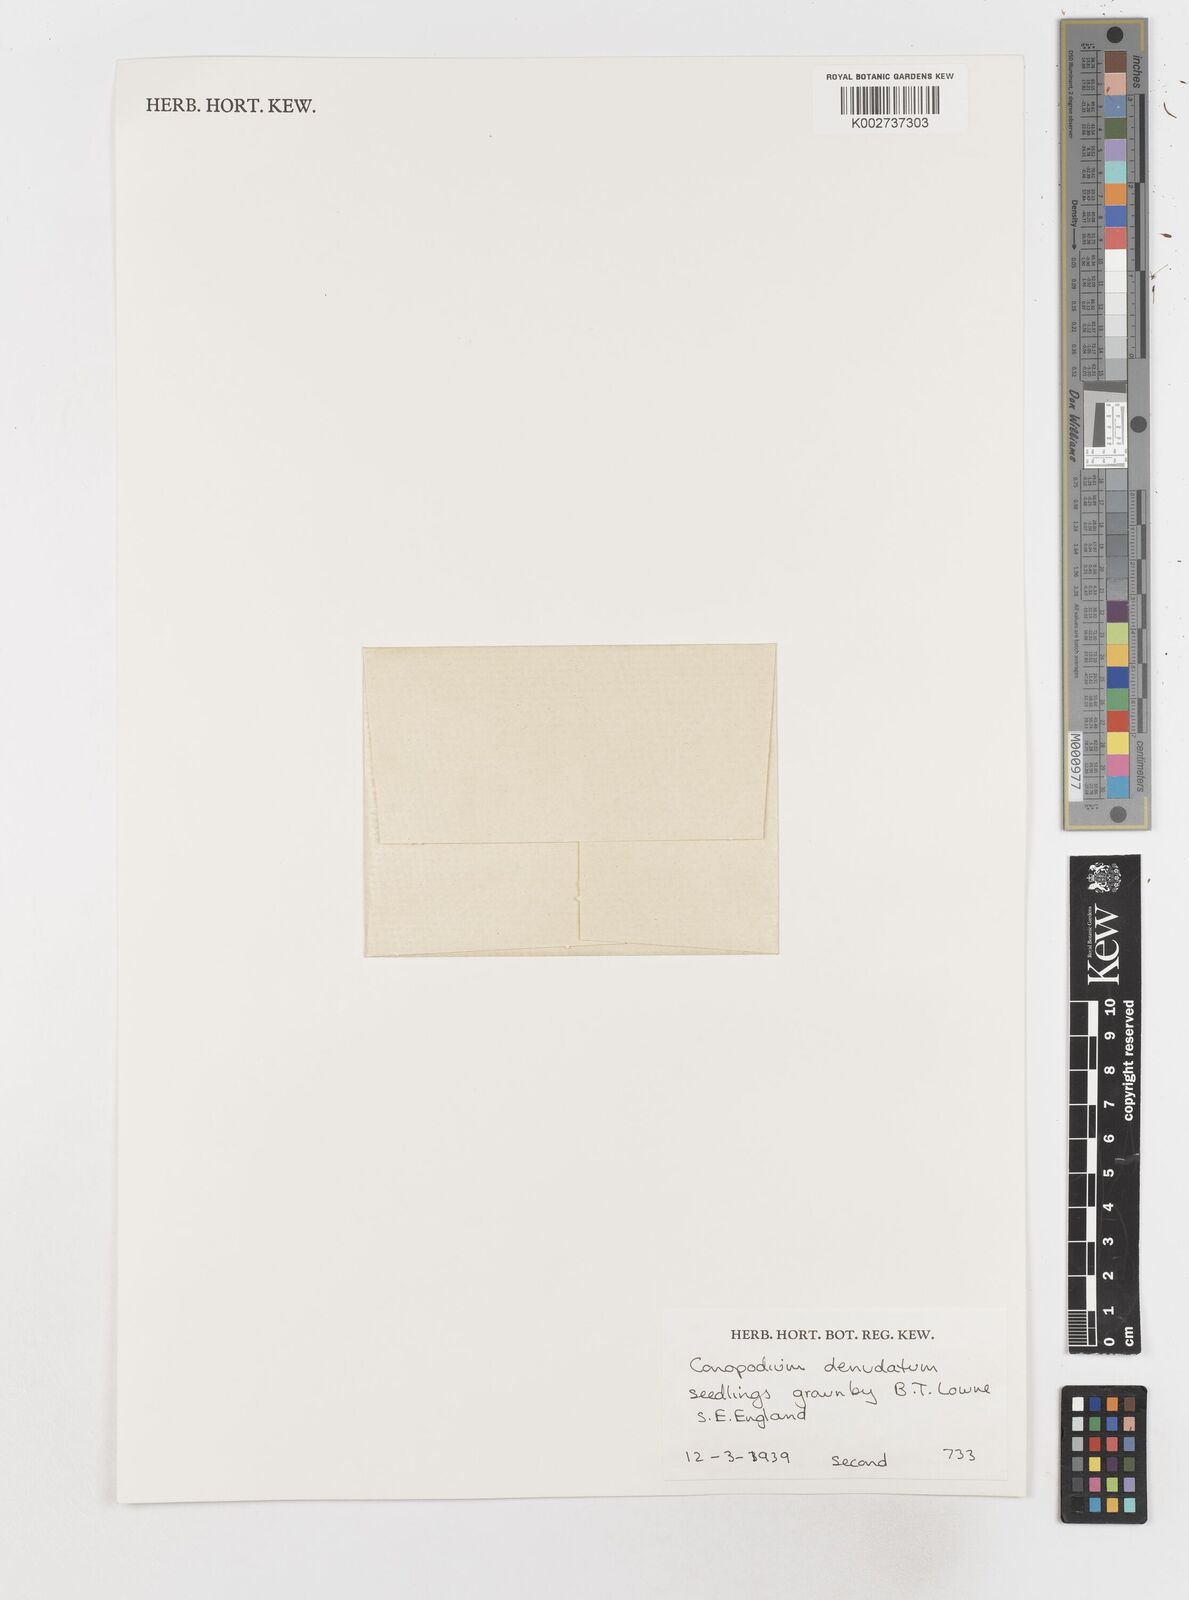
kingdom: Plantae
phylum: Tracheophyta
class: Magnoliopsida
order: Apiales
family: Apiaceae
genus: Conopodium
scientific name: Conopodium majus
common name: Pignut
